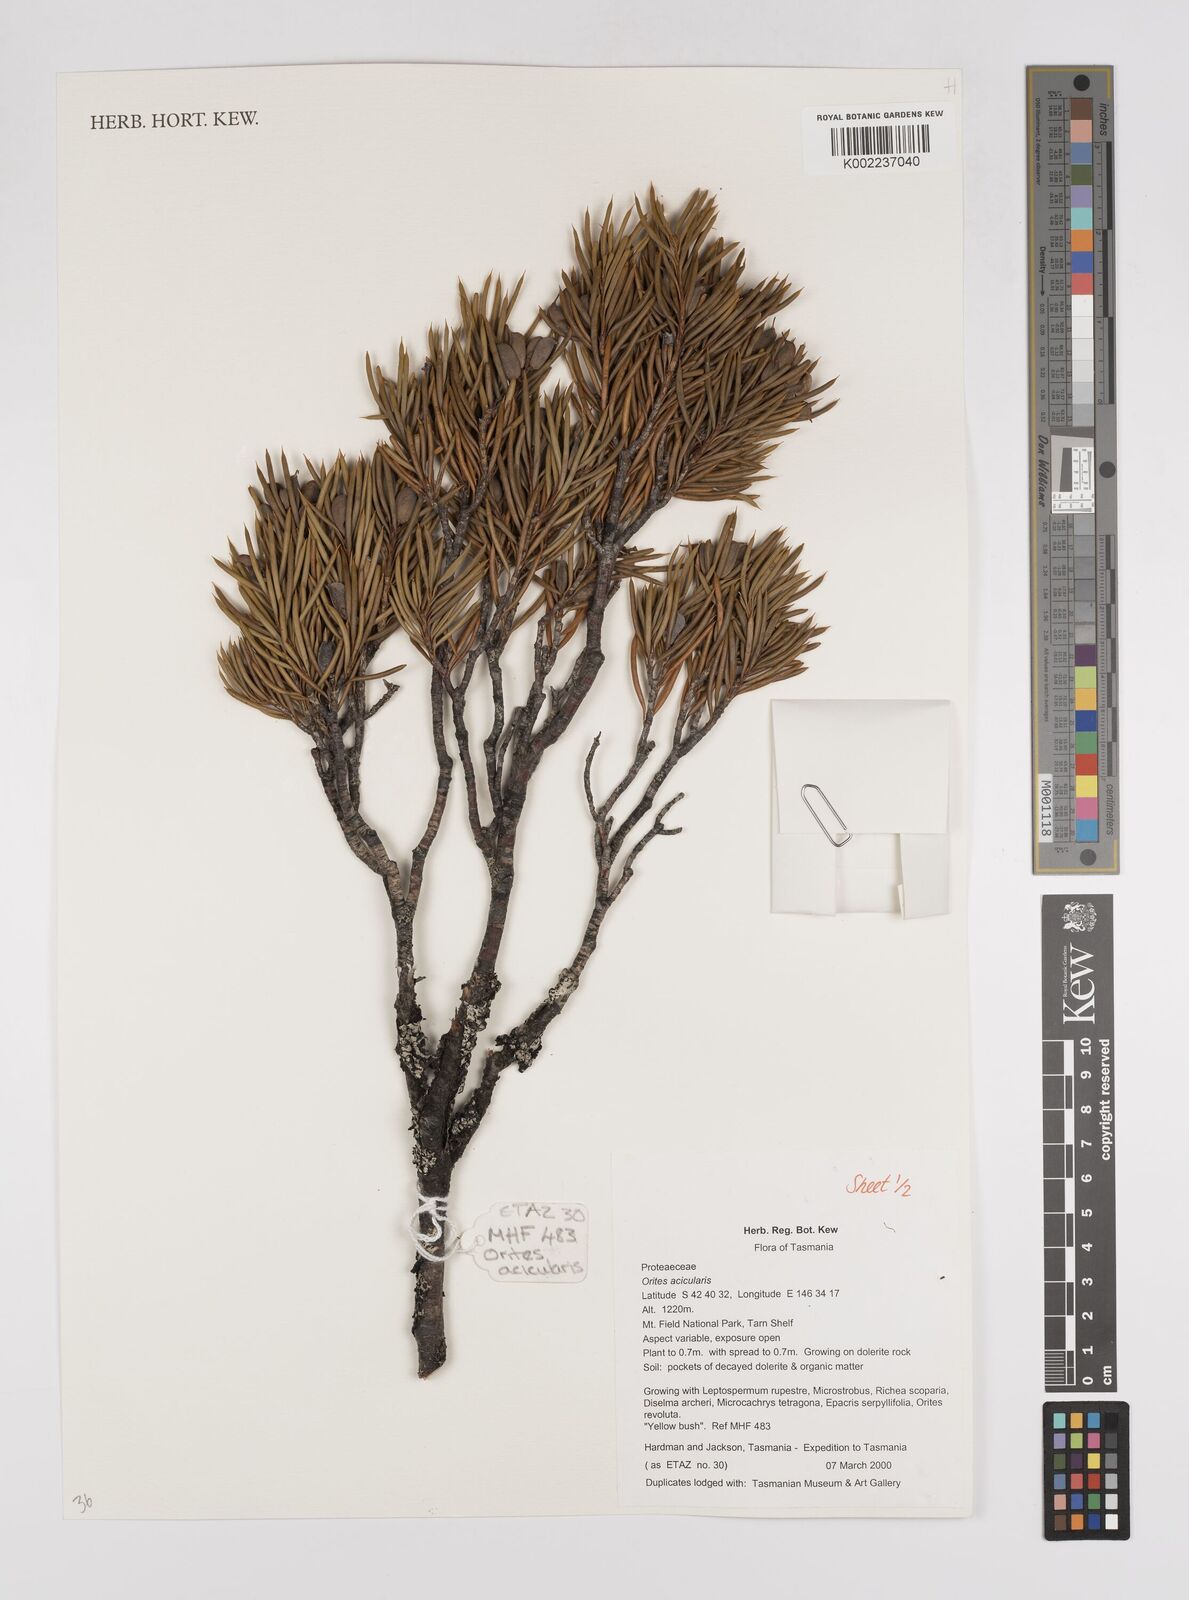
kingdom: Plantae
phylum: Tracheophyta
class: Magnoliopsida
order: Proteales
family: Proteaceae
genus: Orites
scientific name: Orites acicularis
